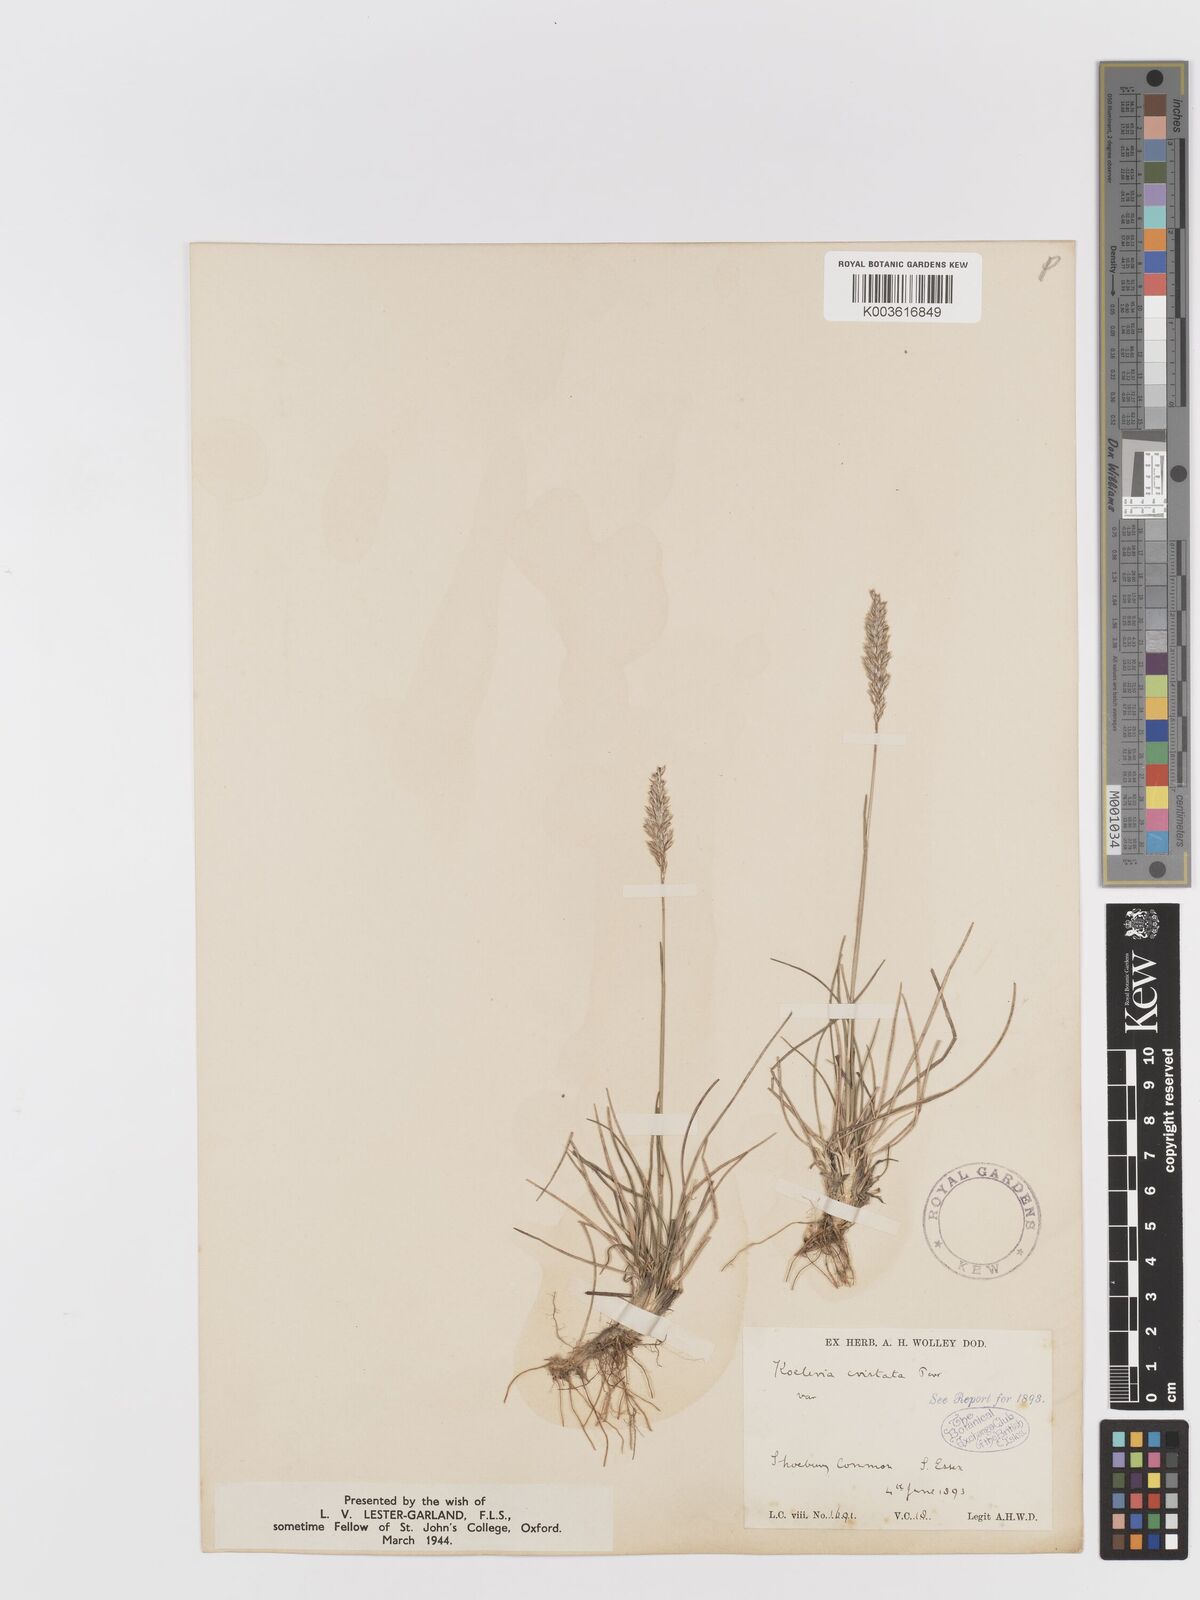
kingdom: Plantae
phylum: Tracheophyta
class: Liliopsida
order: Poales
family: Poaceae
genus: Koeleria
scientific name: Koeleria macrantha
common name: Crested hair-grass
